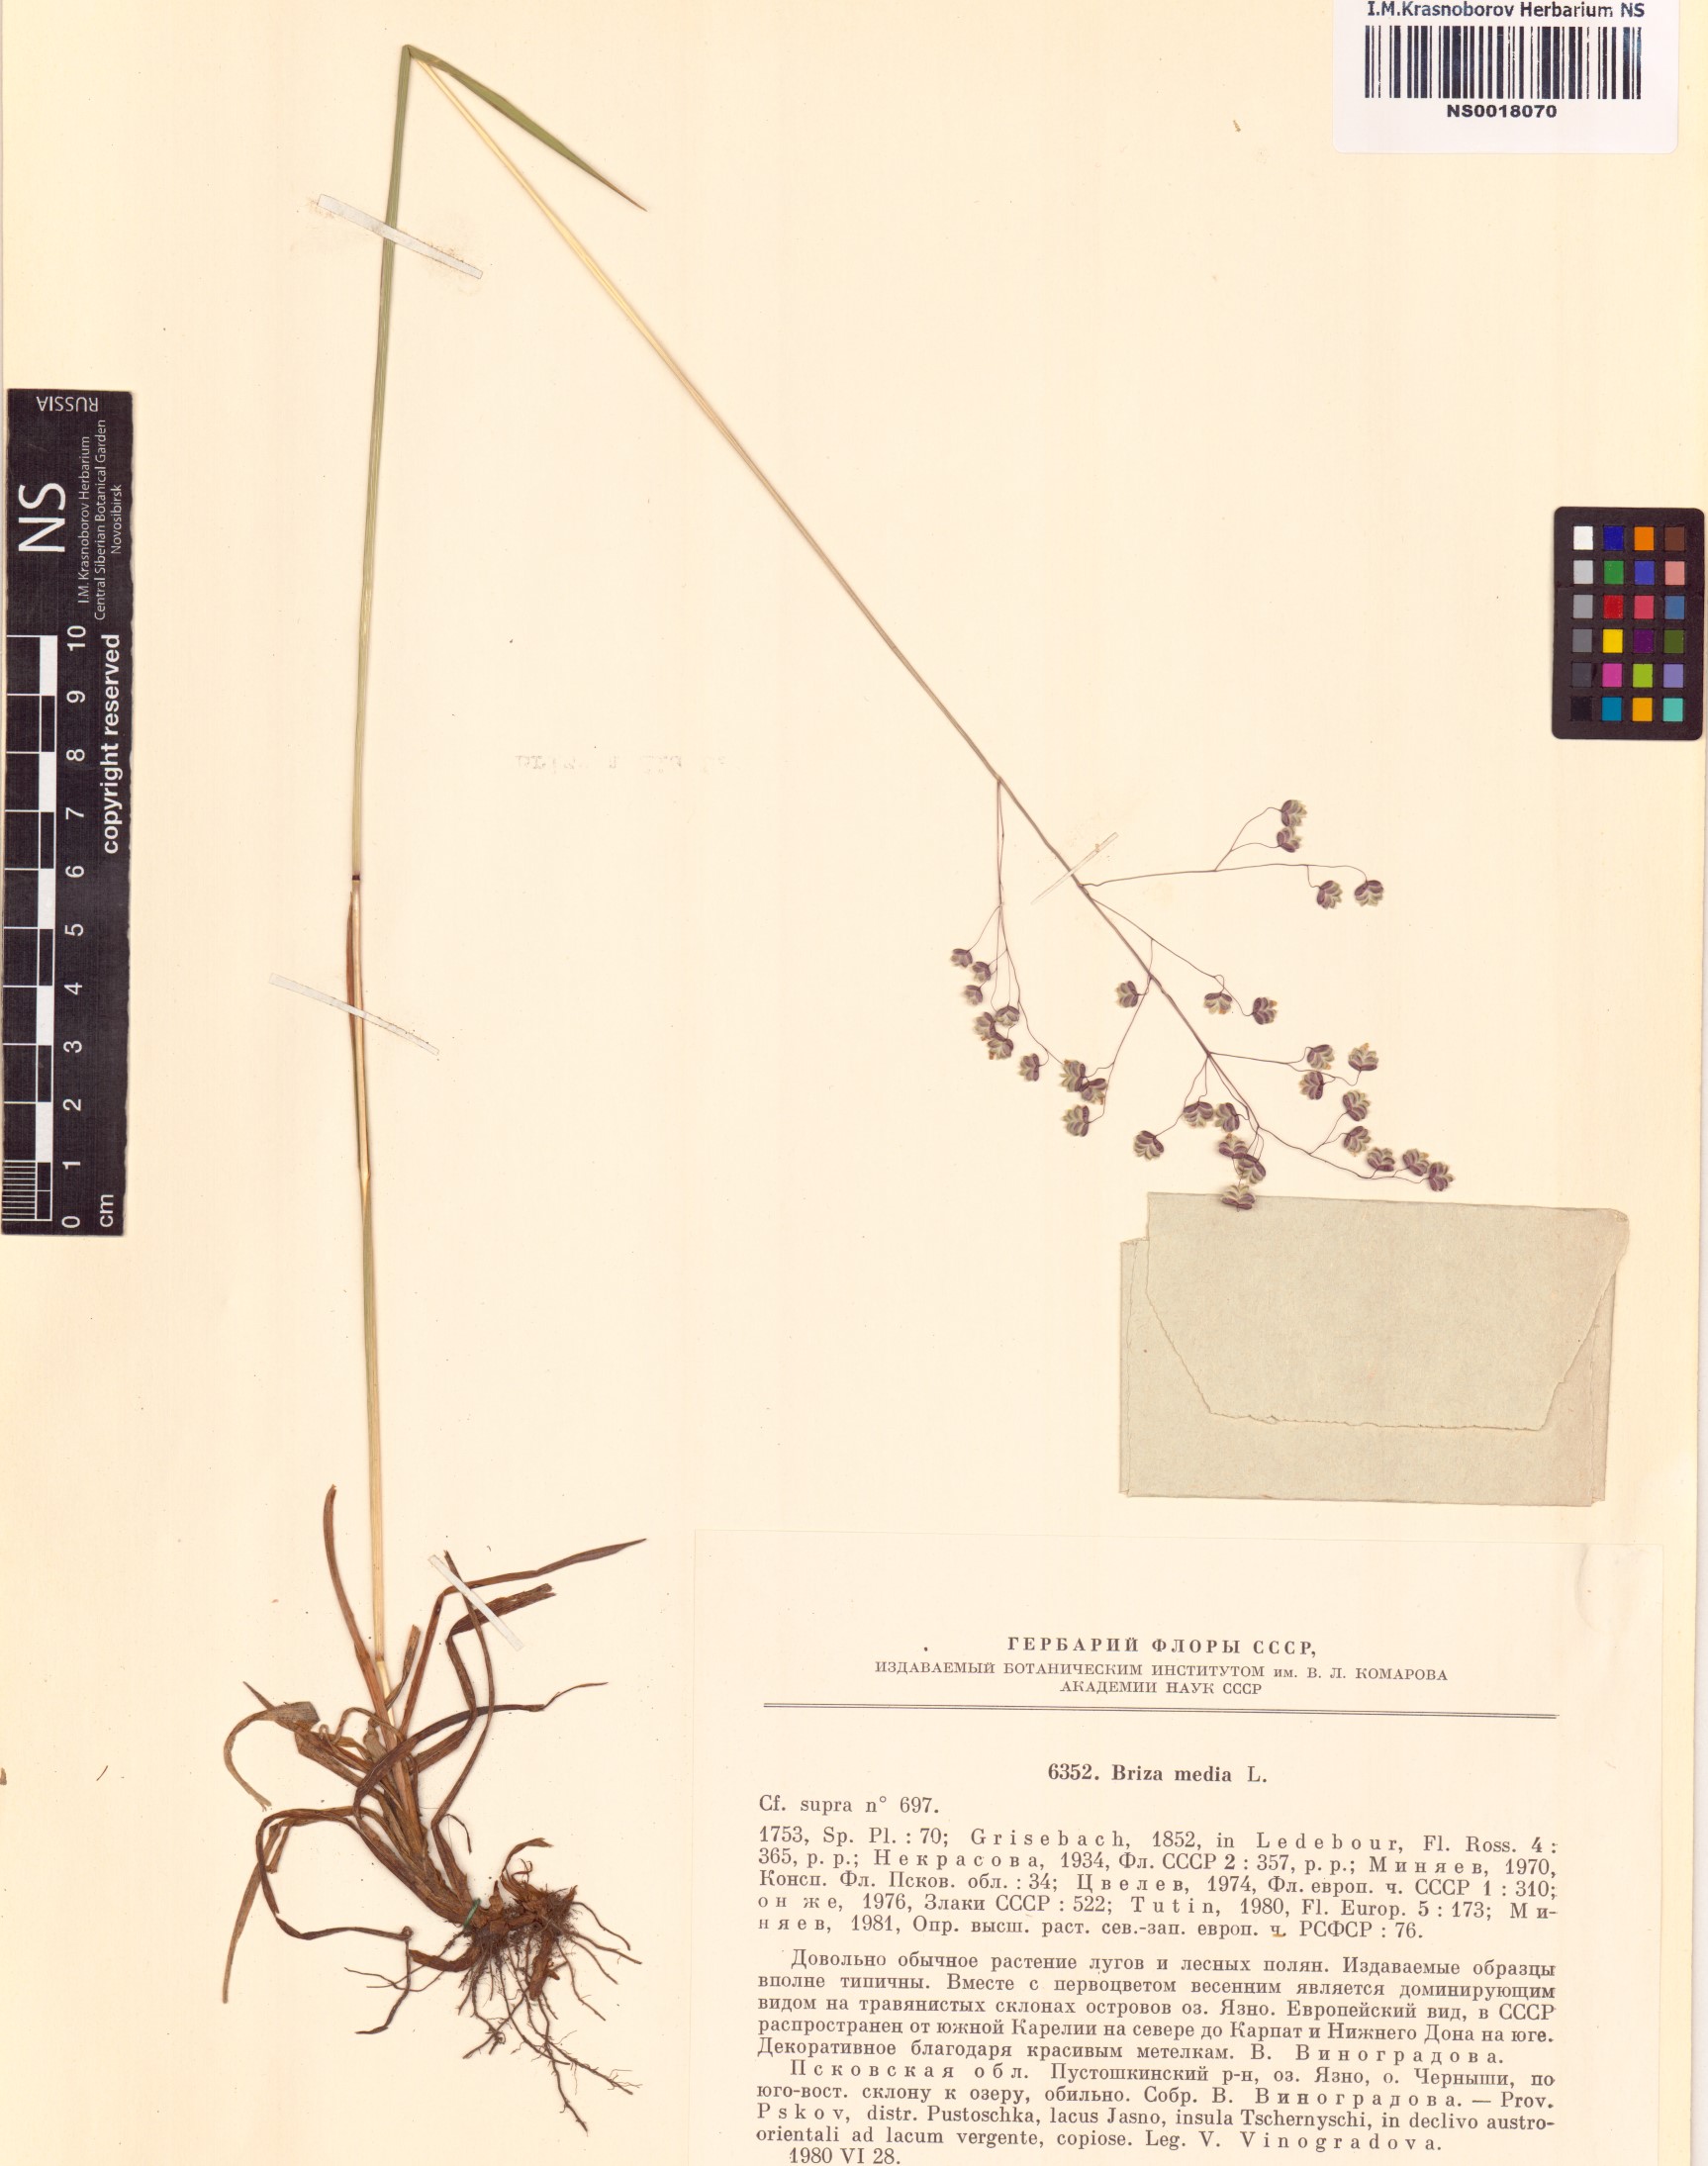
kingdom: Plantae
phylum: Tracheophyta
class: Liliopsida
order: Poales
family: Poaceae
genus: Briza
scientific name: Briza media
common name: Quaking grass
